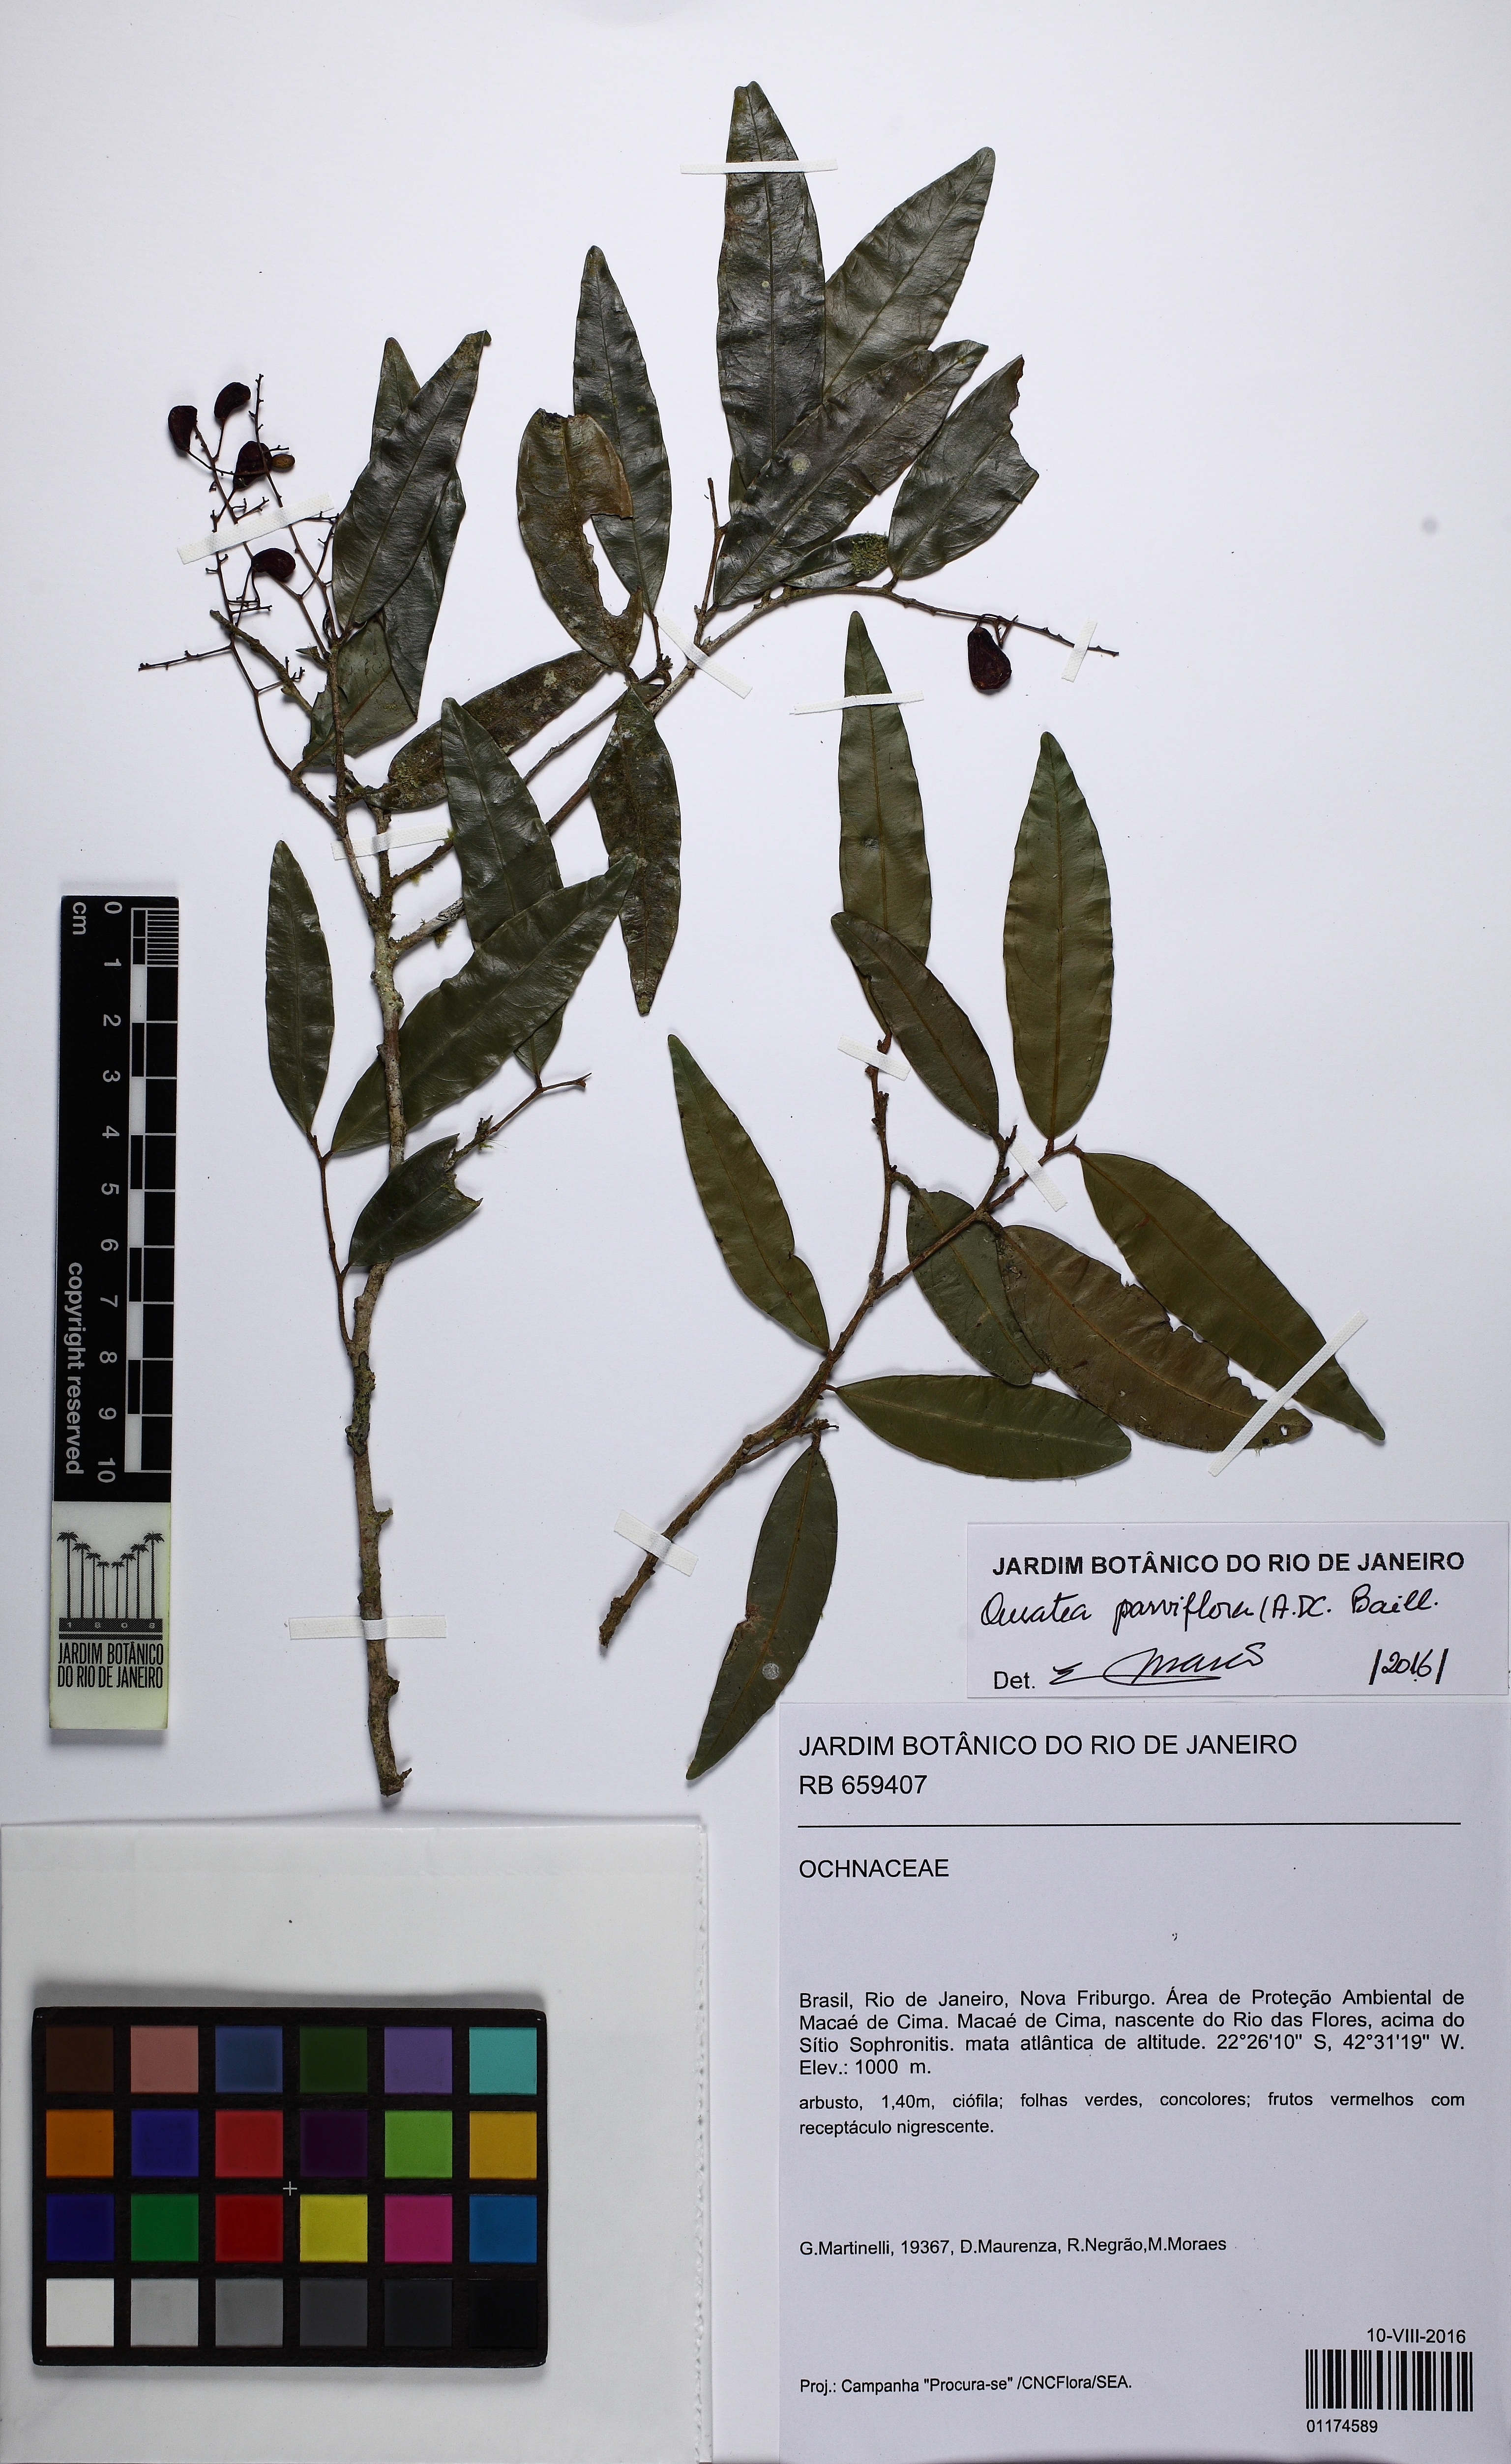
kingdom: Plantae
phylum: Tracheophyta
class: Magnoliopsida
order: Malpighiales
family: Ochnaceae
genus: Ouratea
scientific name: Ouratea parviflora
